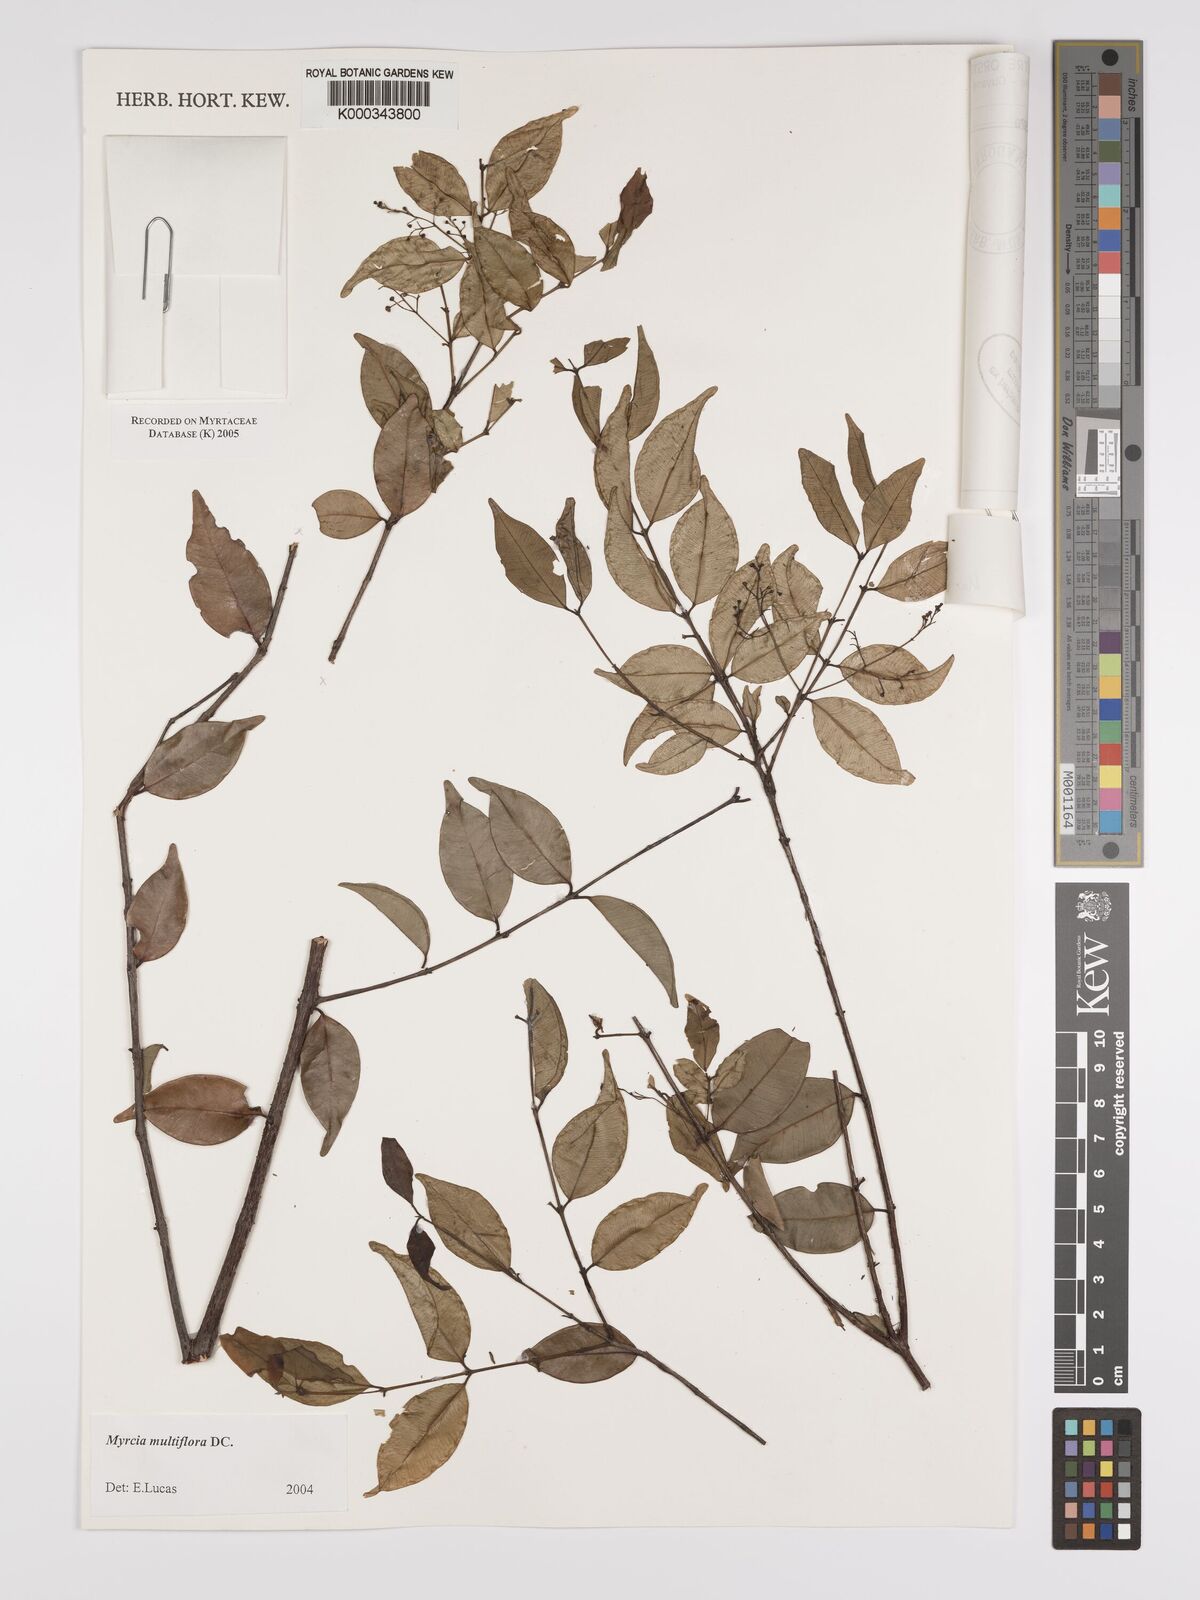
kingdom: Plantae
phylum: Tracheophyta
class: Magnoliopsida
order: Myrtales
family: Myrtaceae
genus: Myrcia
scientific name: Myrcia multiflora
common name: Pedra hume
